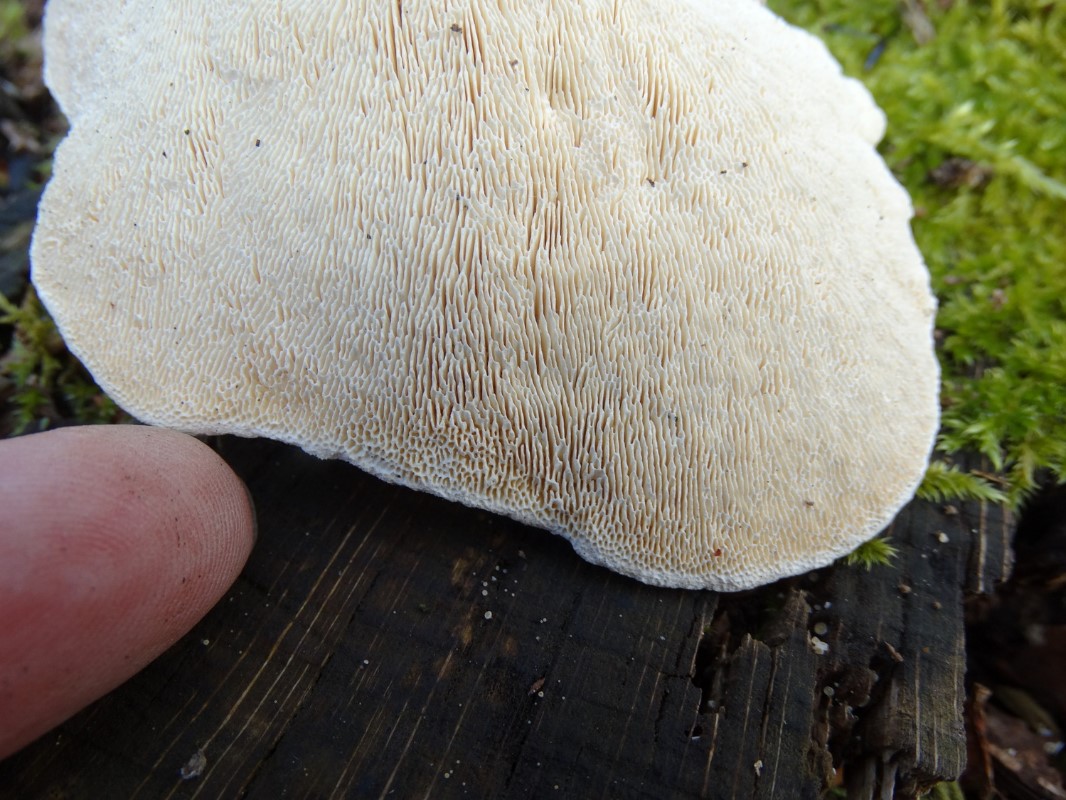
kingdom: Fungi
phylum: Basidiomycota
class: Agaricomycetes
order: Polyporales
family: Polyporaceae
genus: Trametes
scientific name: Trametes gibbosa
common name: puklet læderporesvamp
